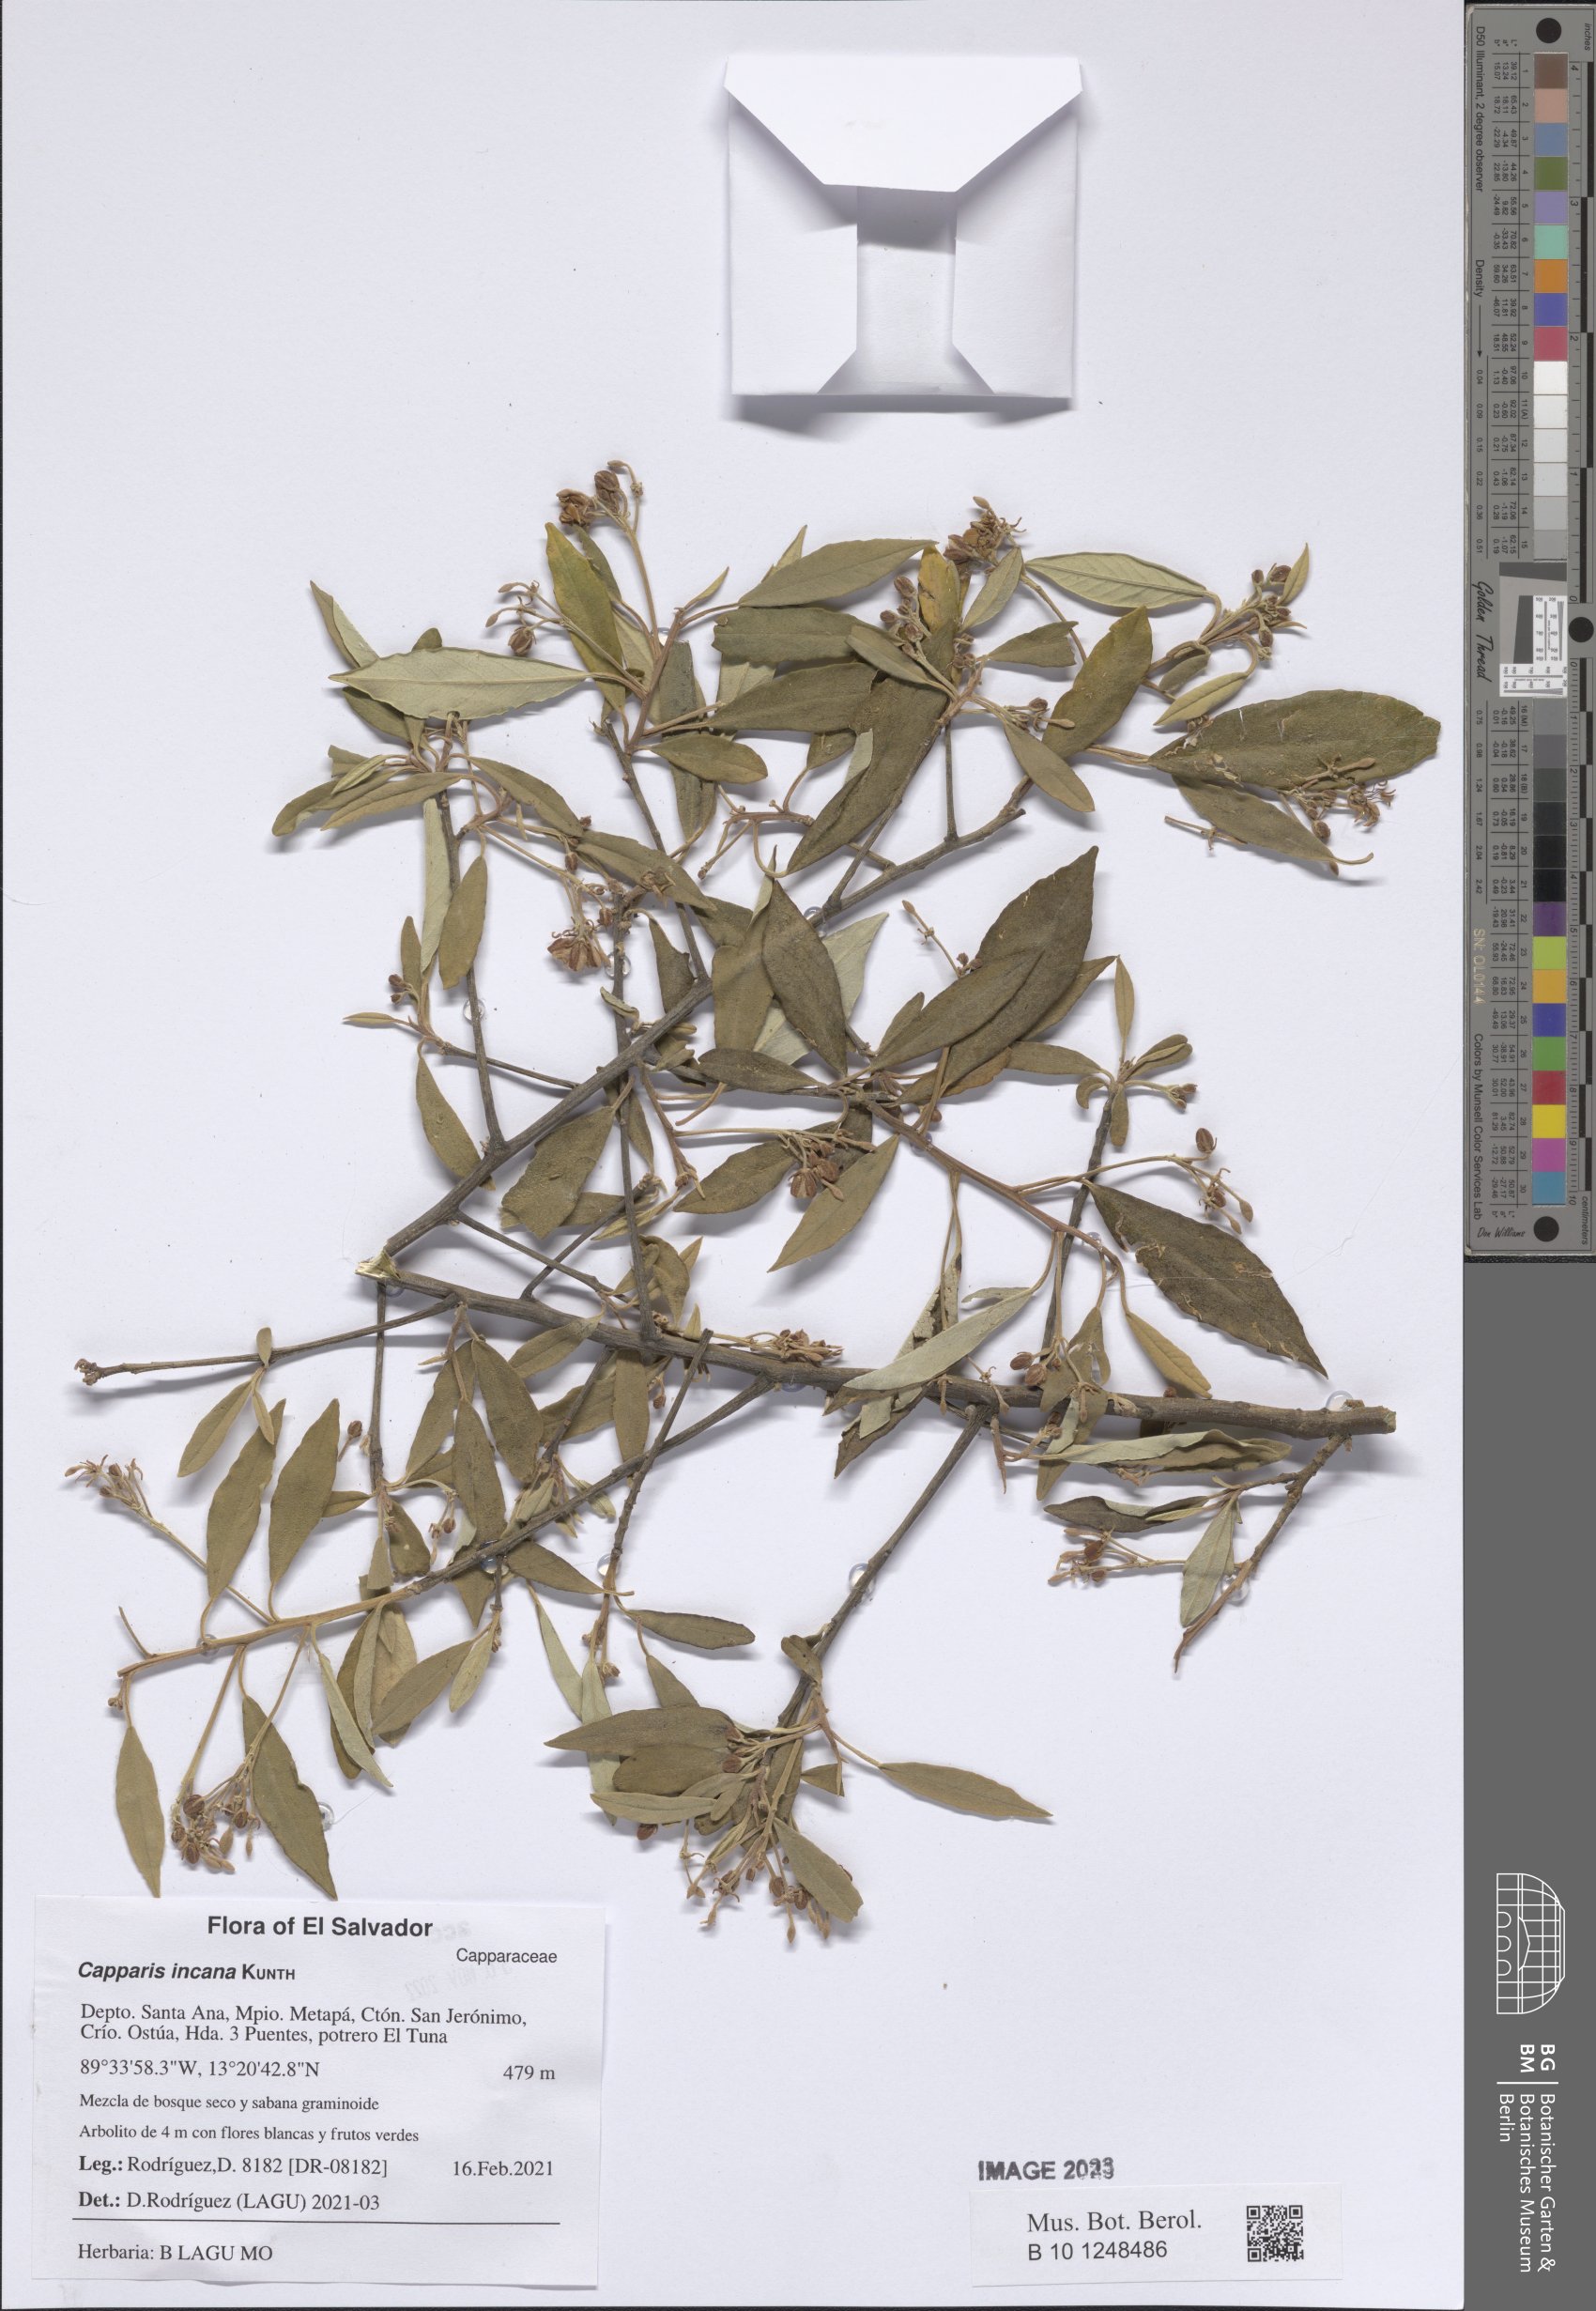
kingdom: Plantae
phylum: Tracheophyta
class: Magnoliopsida
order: Brassicales
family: Capparaceae
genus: Quadrella
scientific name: Quadrella incana
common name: Hoary caper
